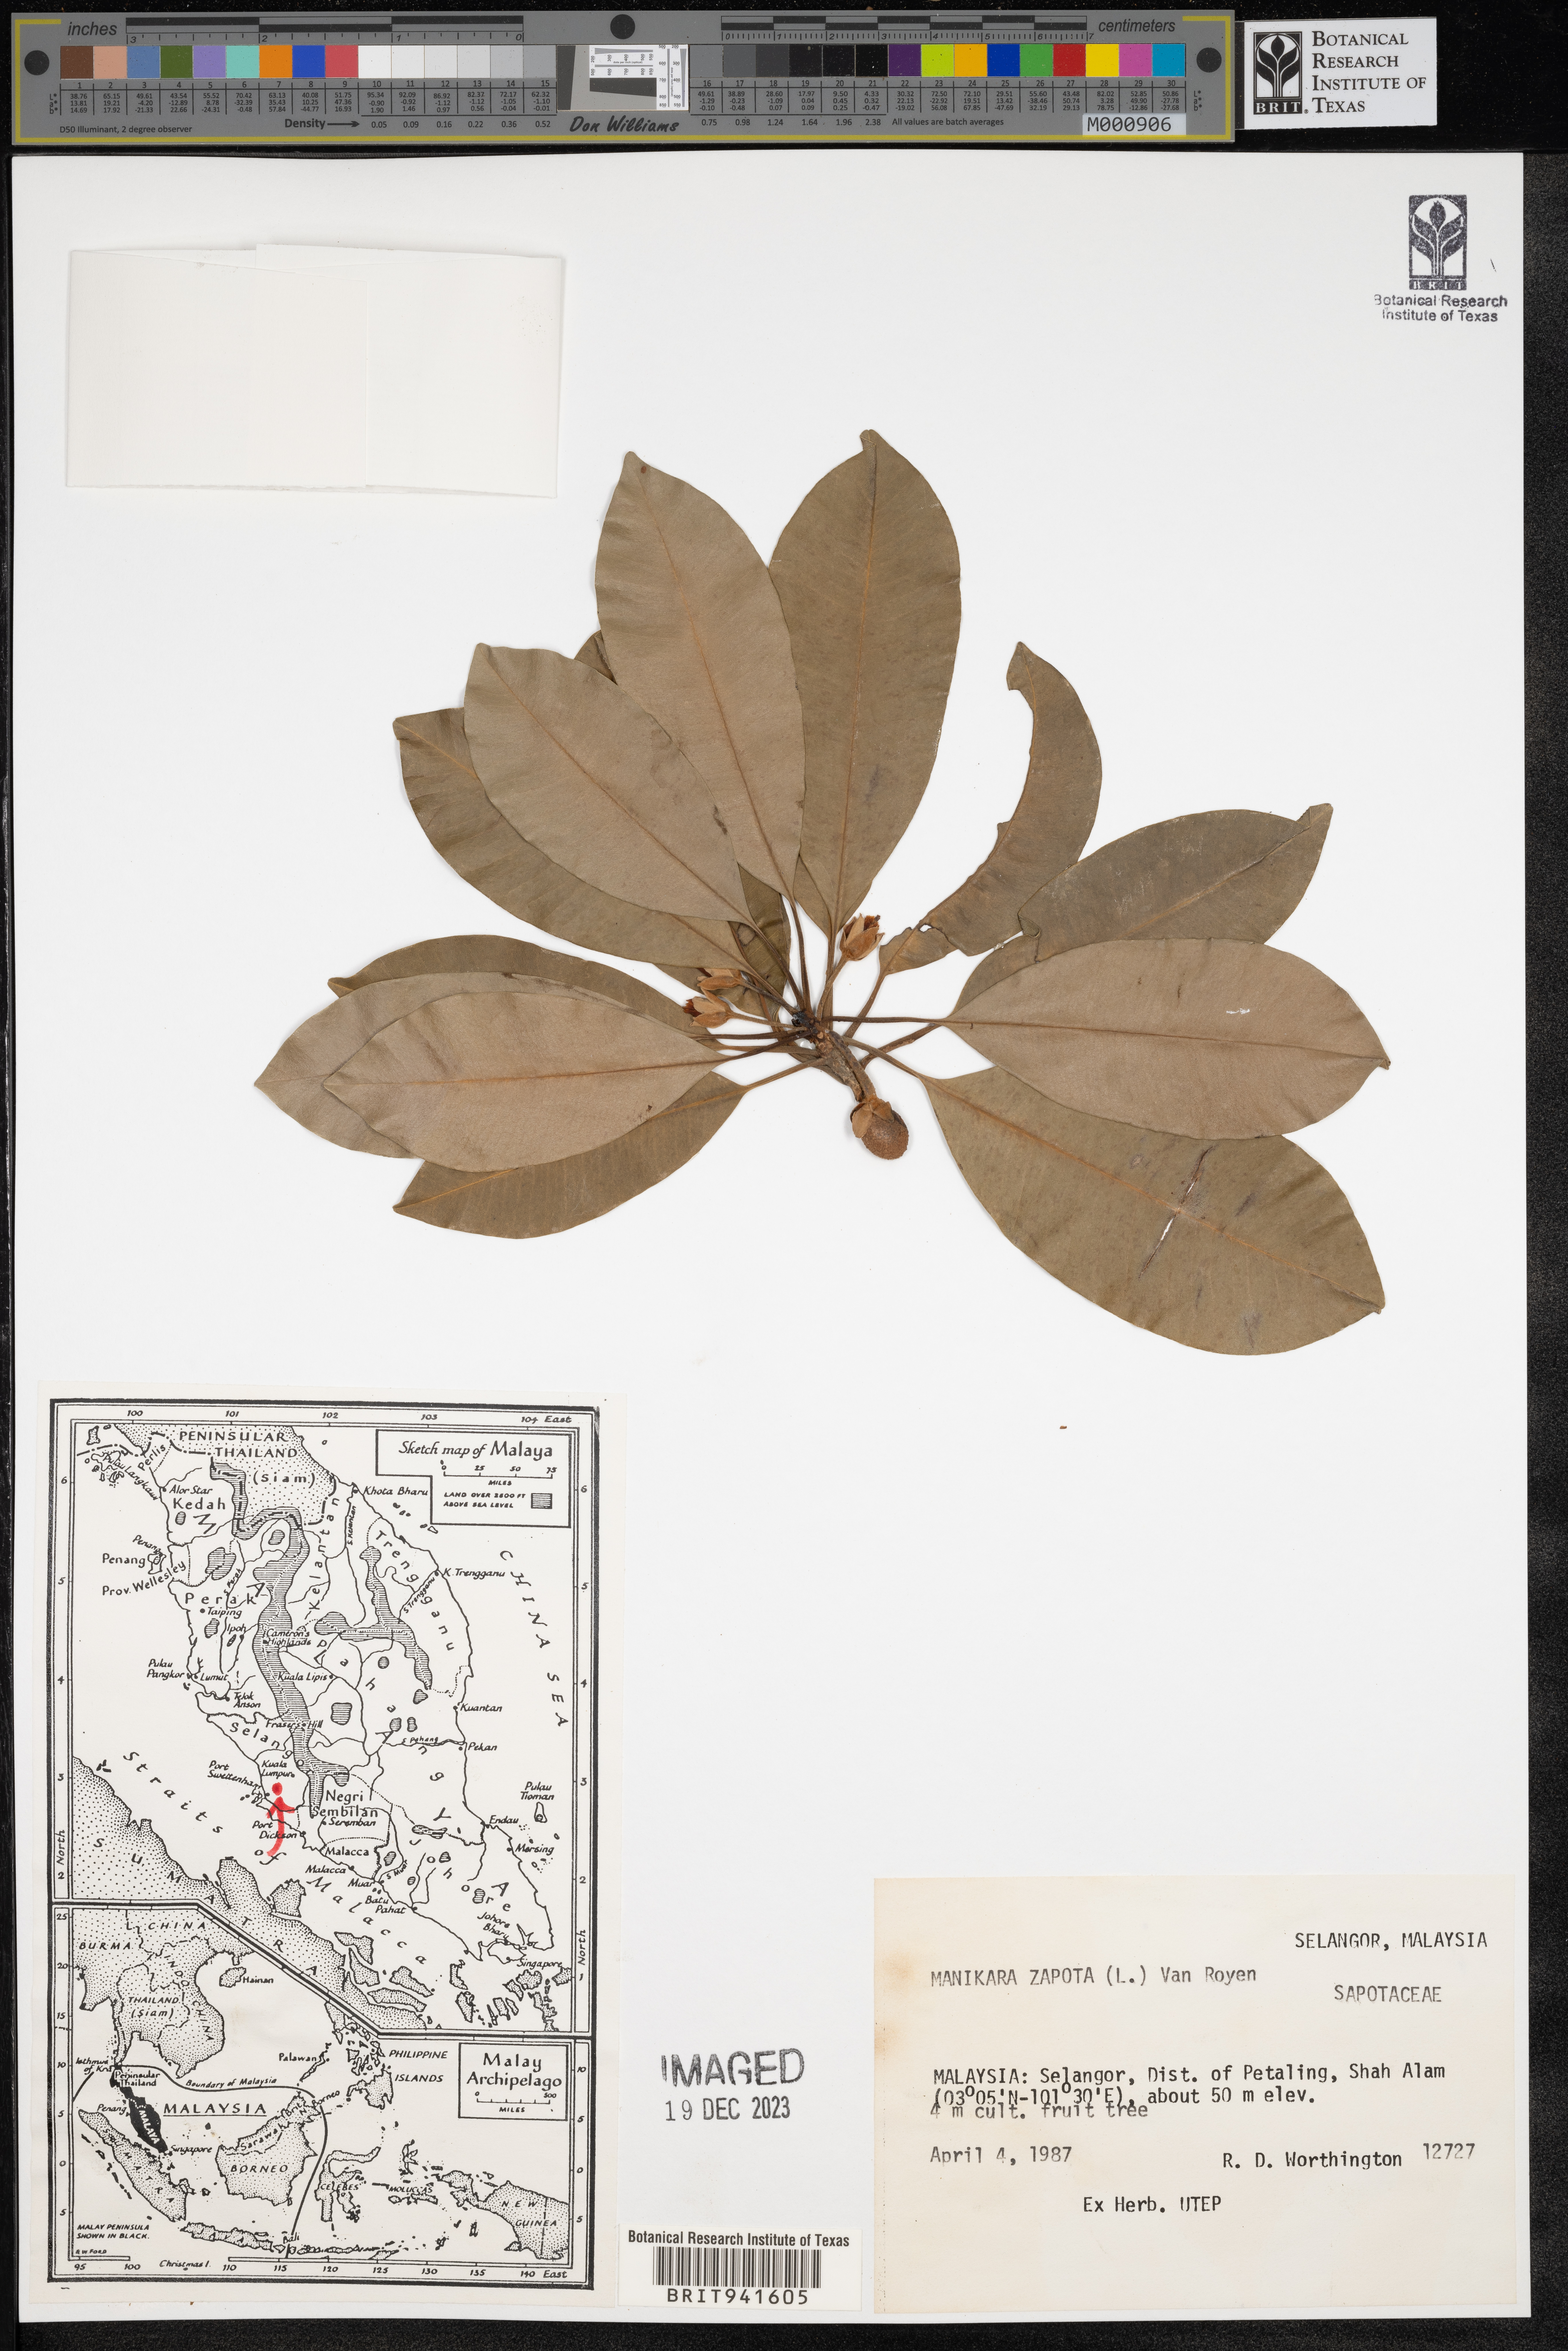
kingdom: Plantae
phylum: Tracheophyta
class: Magnoliopsida
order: Ericales
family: Sapotaceae
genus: Manilkara
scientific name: Manilkara
